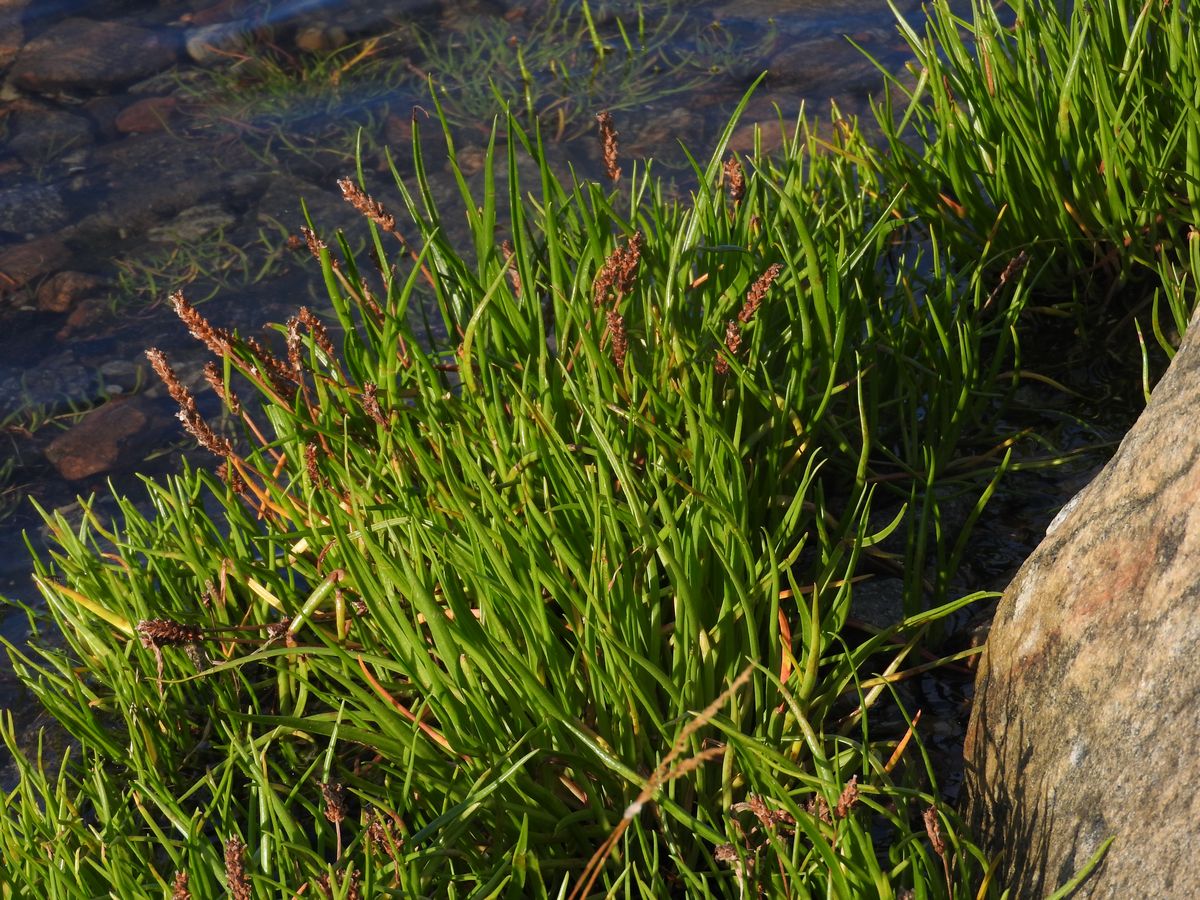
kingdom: Plantae
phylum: Tracheophyta
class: Magnoliopsida
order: Lamiales
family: Plantaginaceae
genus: Plantago
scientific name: Plantago maritima
